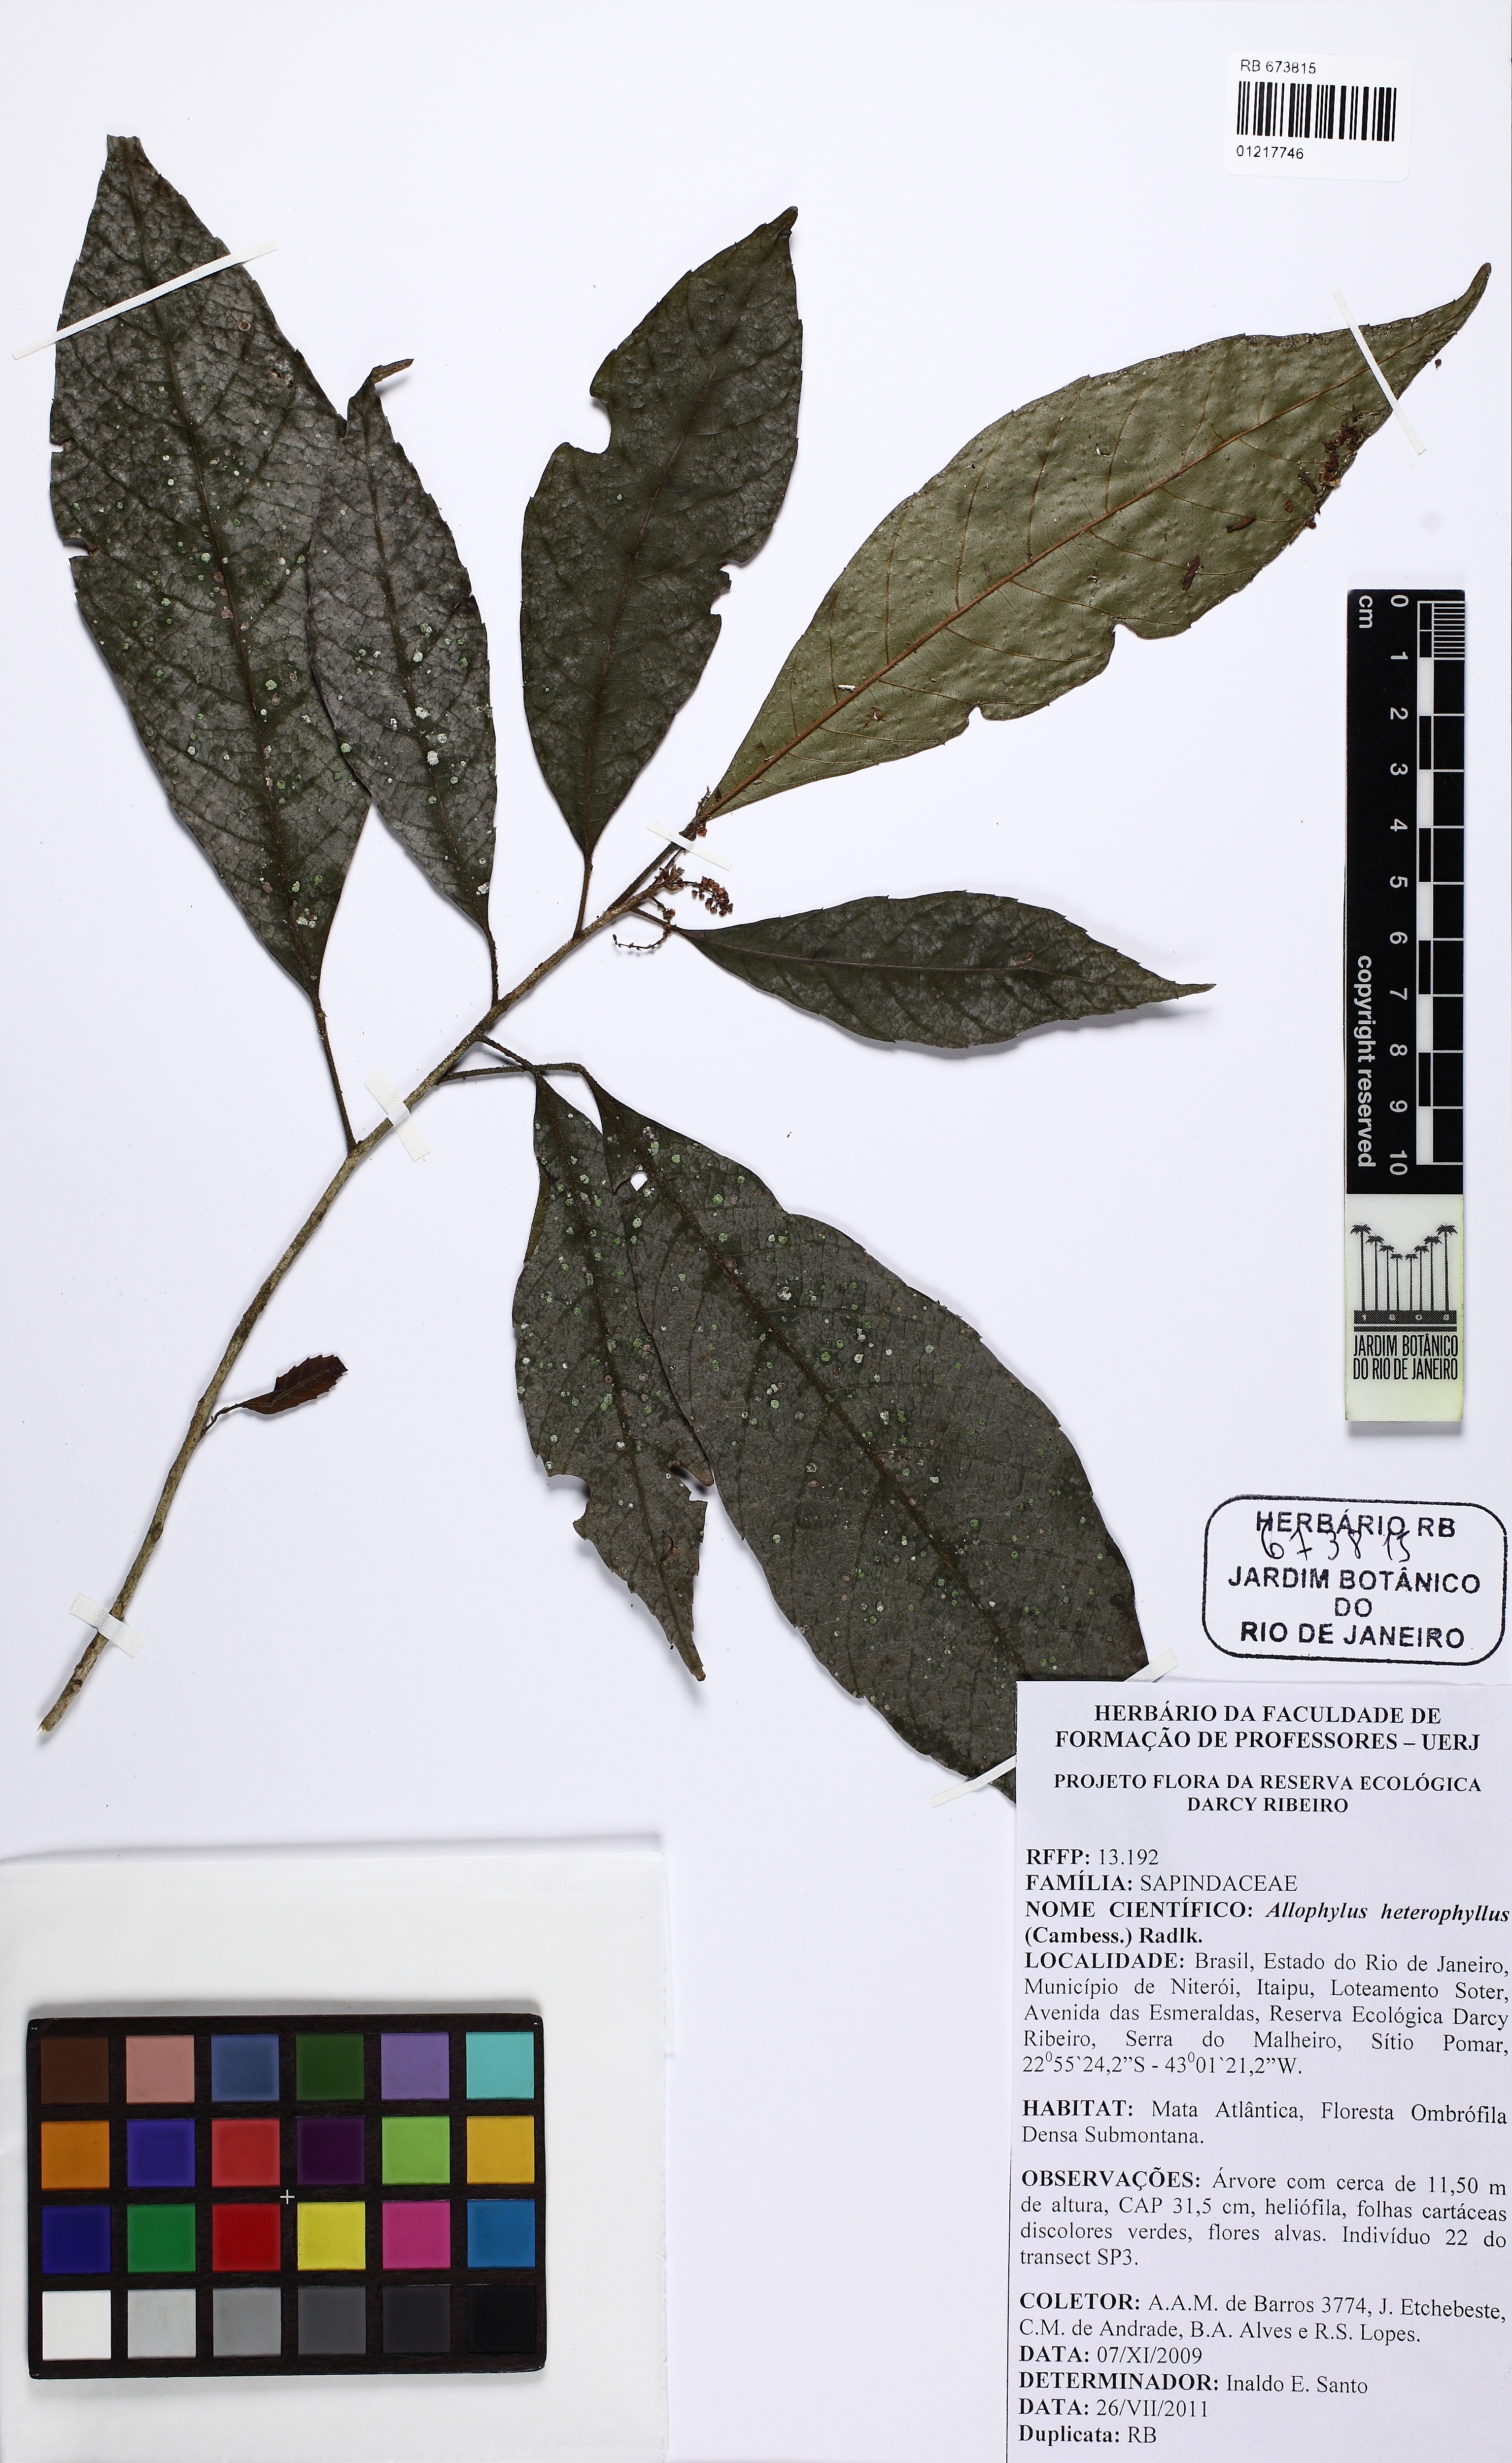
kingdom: Plantae
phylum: Tracheophyta
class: Magnoliopsida
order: Sapindales
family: Sapindaceae
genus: Allophylus
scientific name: Allophylus heterophyllus
